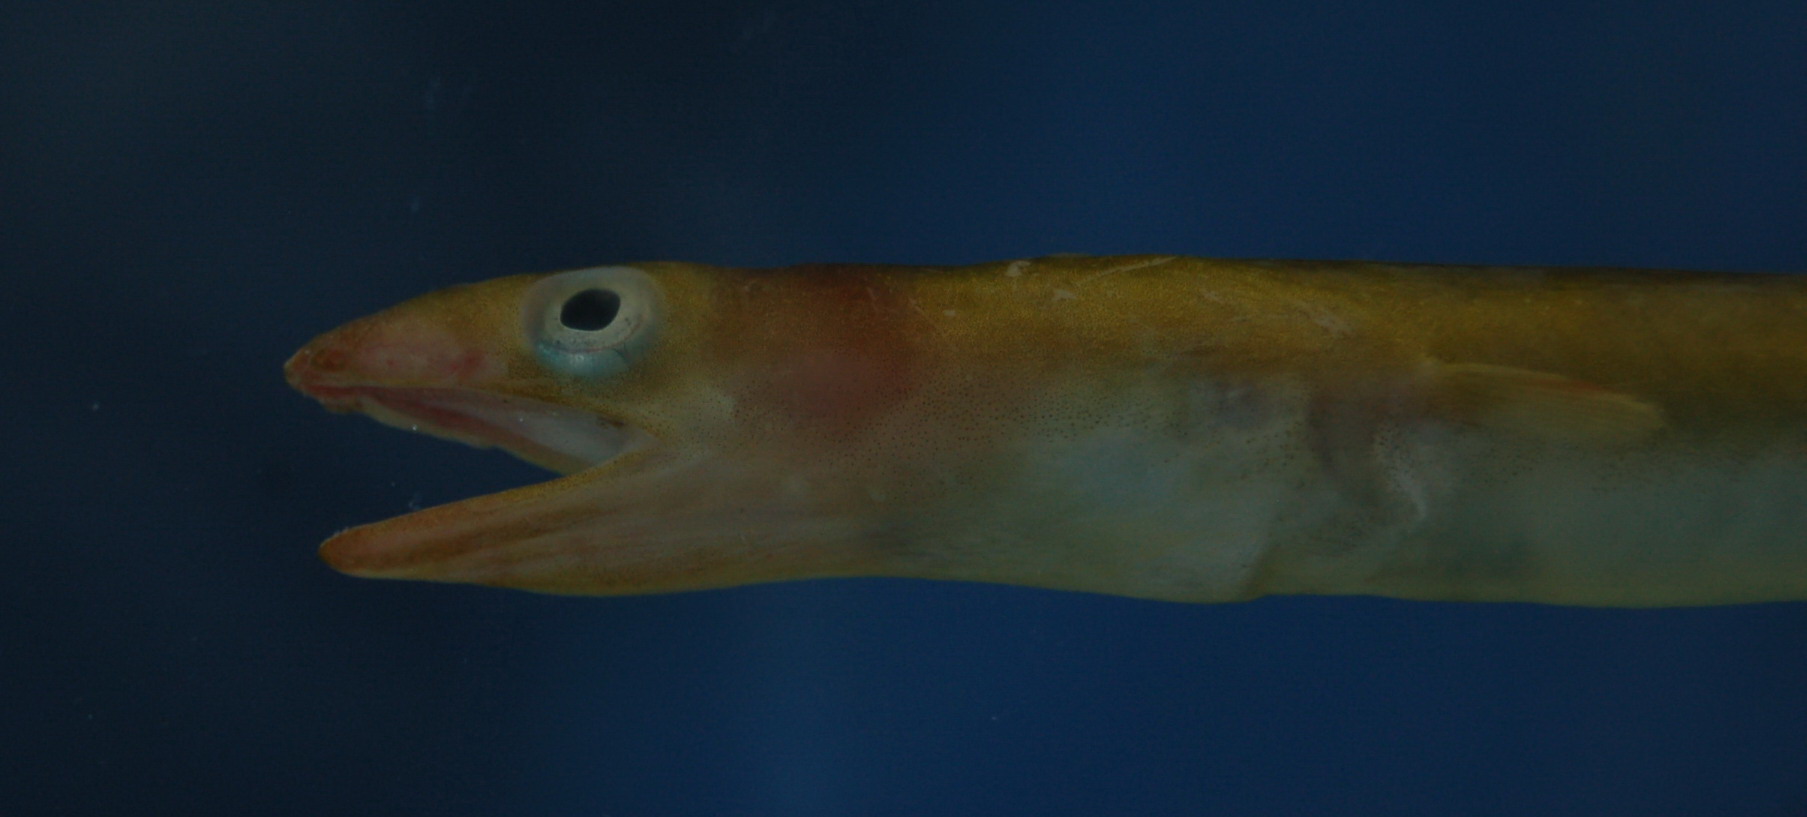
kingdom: Animalia
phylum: Chordata
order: Anguilliformes
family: Ophichthidae
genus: Ophichthus
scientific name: Ophichthus
